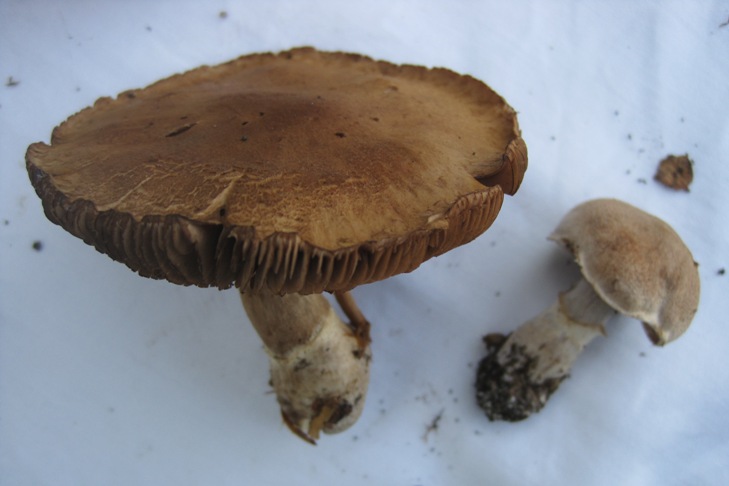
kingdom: Fungi
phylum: Basidiomycota
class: Agaricomycetes
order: Agaricales
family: Cortinariaceae
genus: Cortinarius
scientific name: Cortinarius torvus
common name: champignonagtig slørhat
